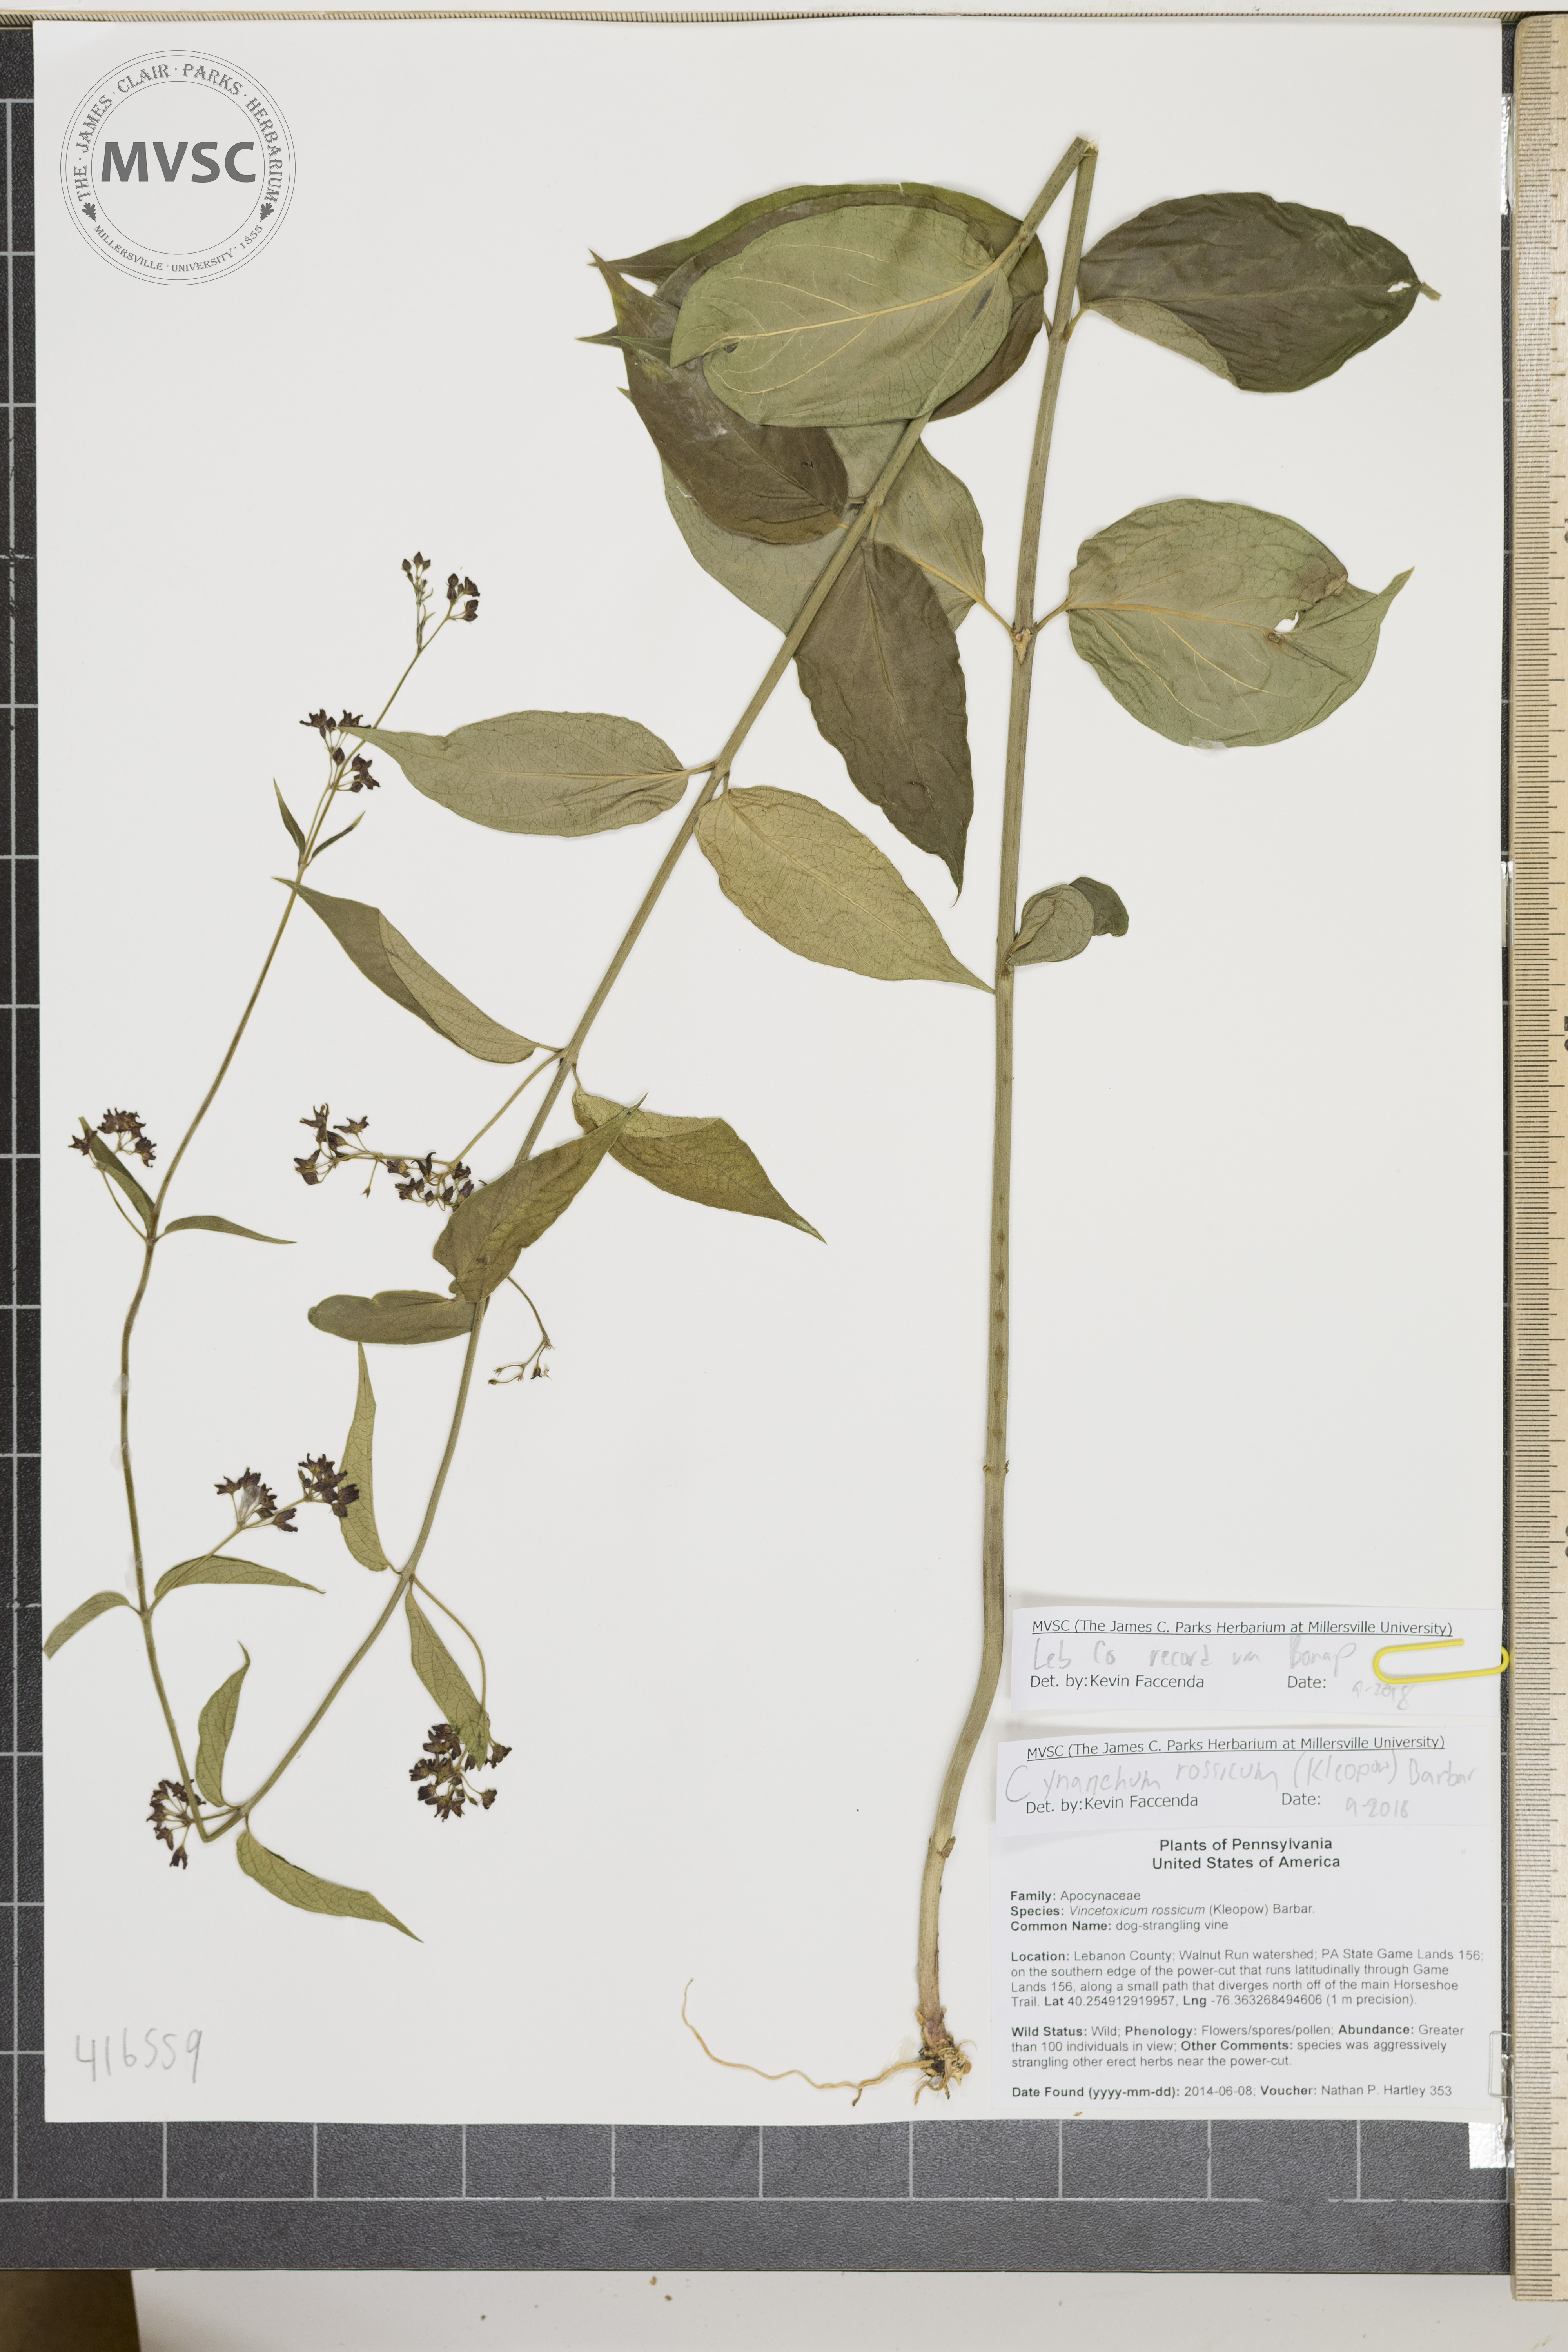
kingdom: Plantae
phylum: Tracheophyta
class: Magnoliopsida
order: Gentianales
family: Apocynaceae
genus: Vincetoxicum
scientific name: Vincetoxicum rossicum
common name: dog-strangling vine
